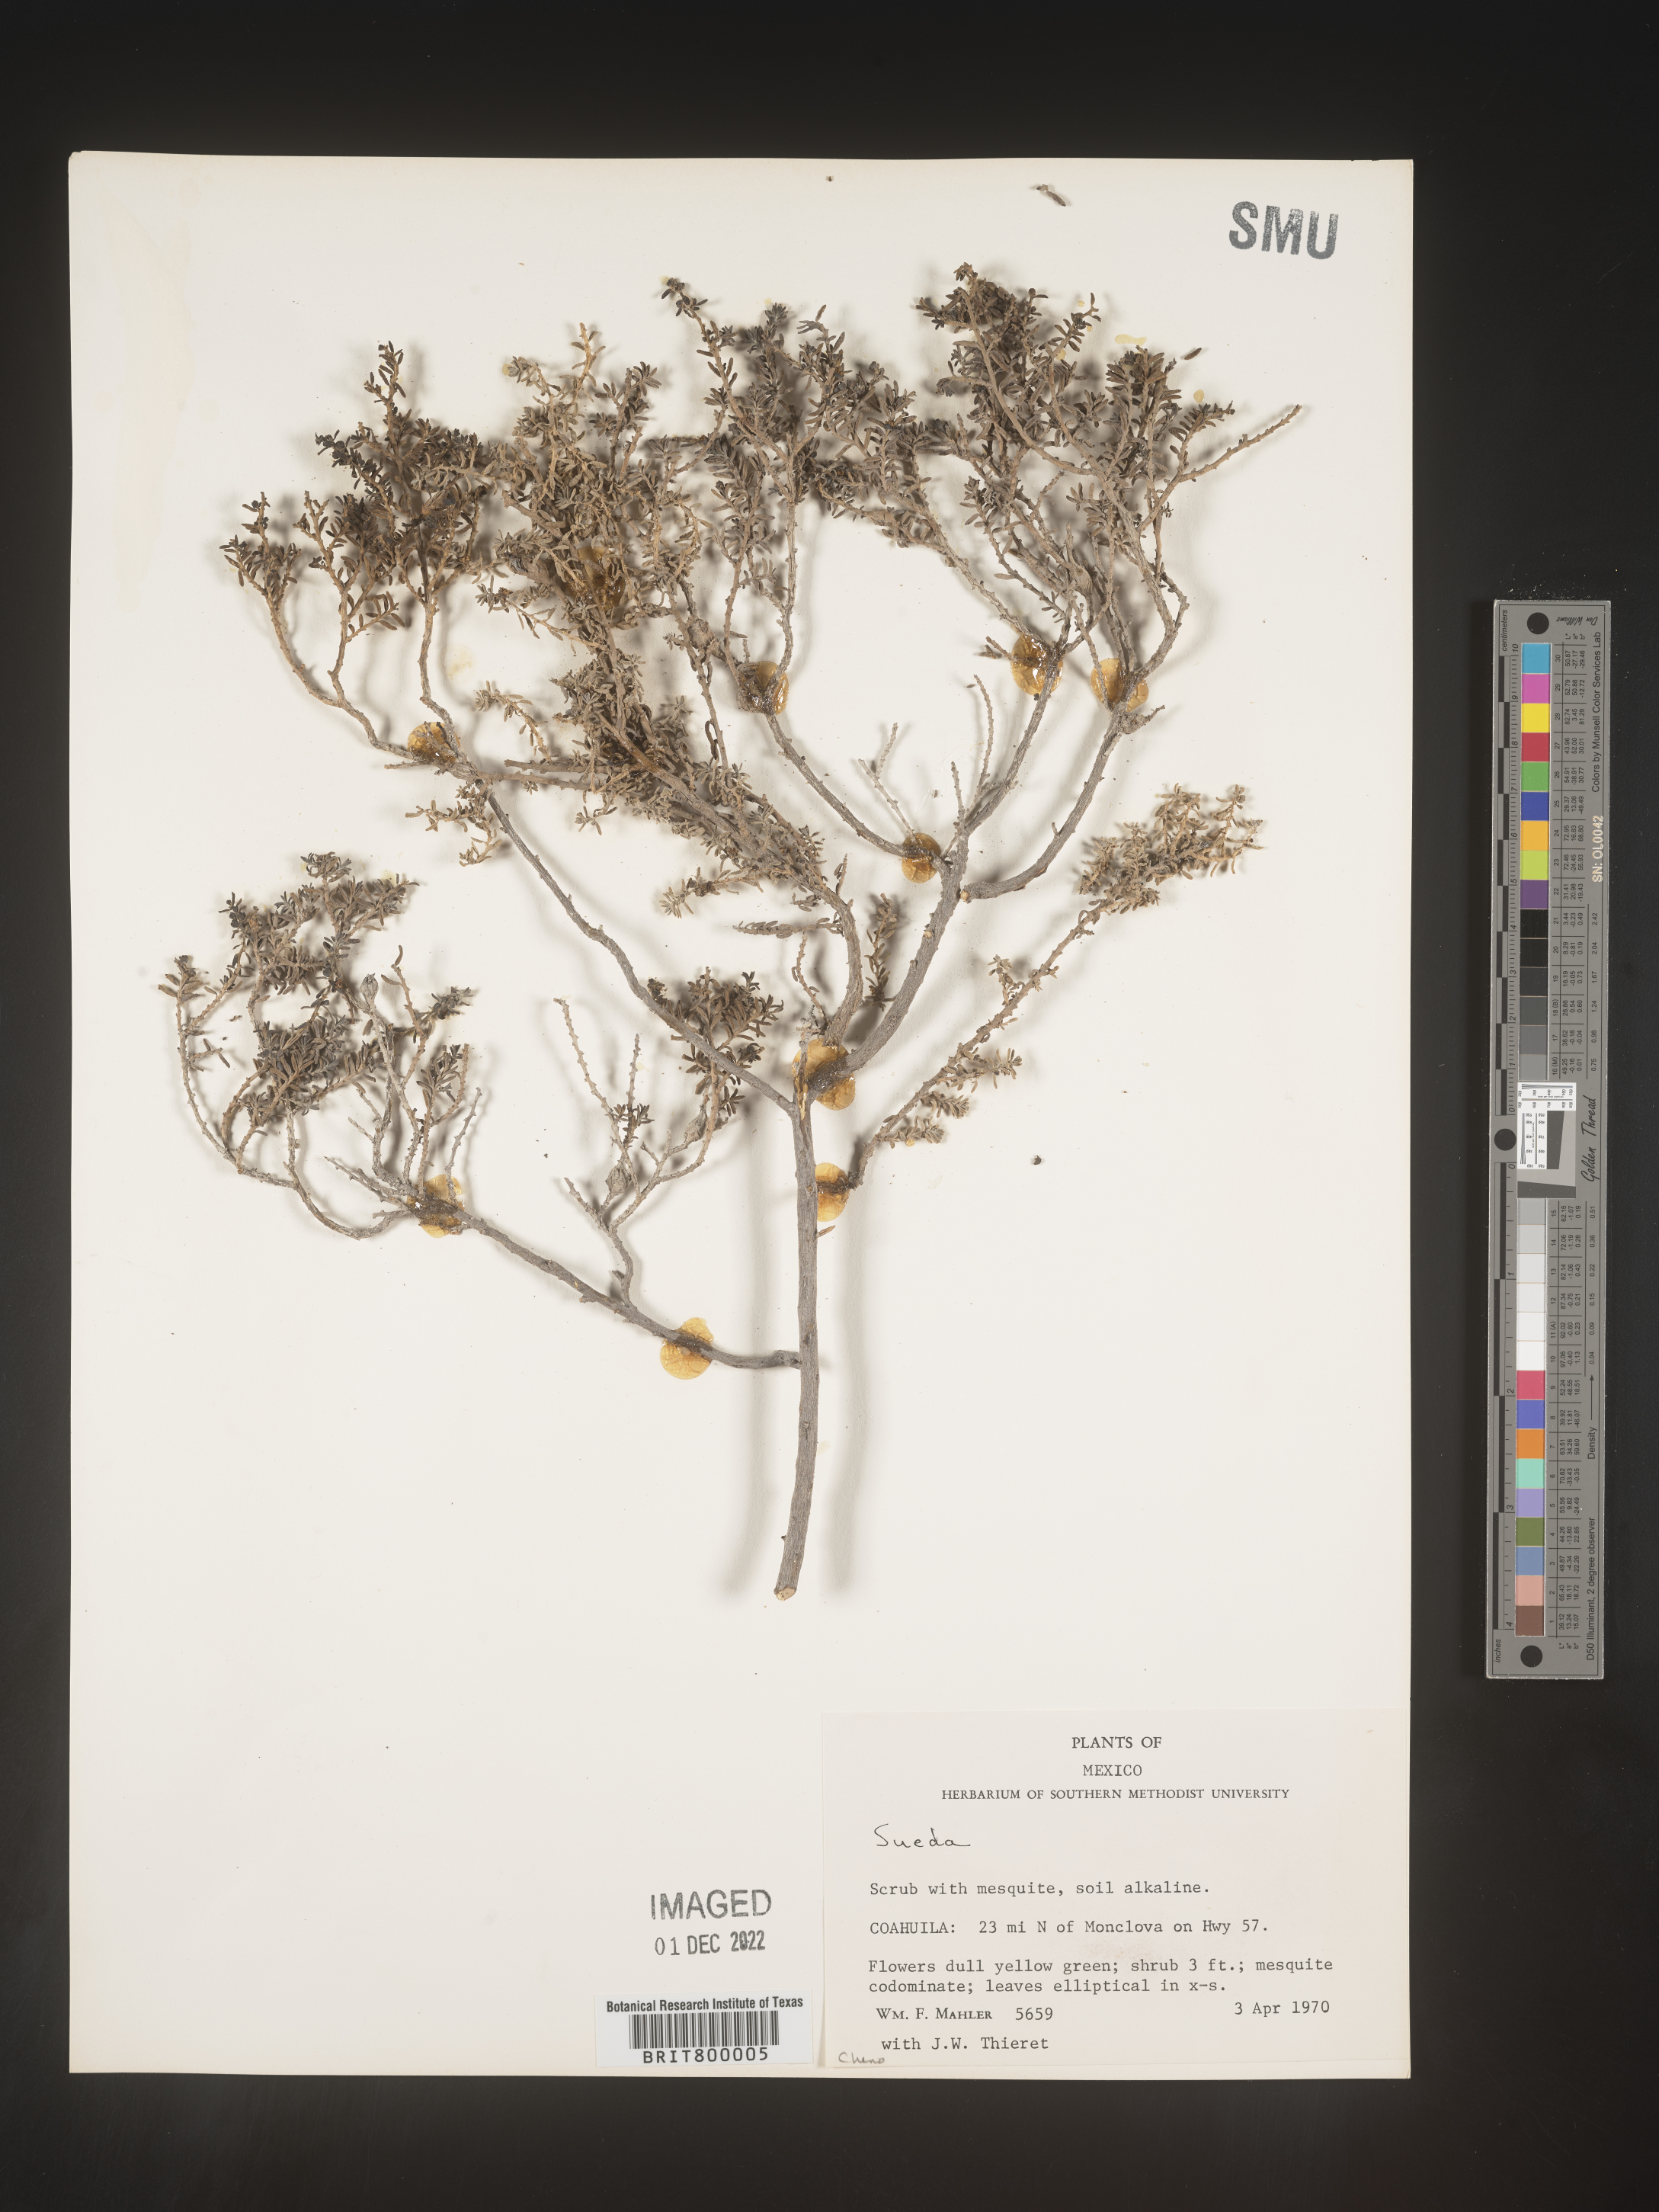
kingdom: Plantae
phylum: Tracheophyta
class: Magnoliopsida
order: Caryophyllales
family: Amaranthaceae
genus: Suaeda
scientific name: Suaeda
